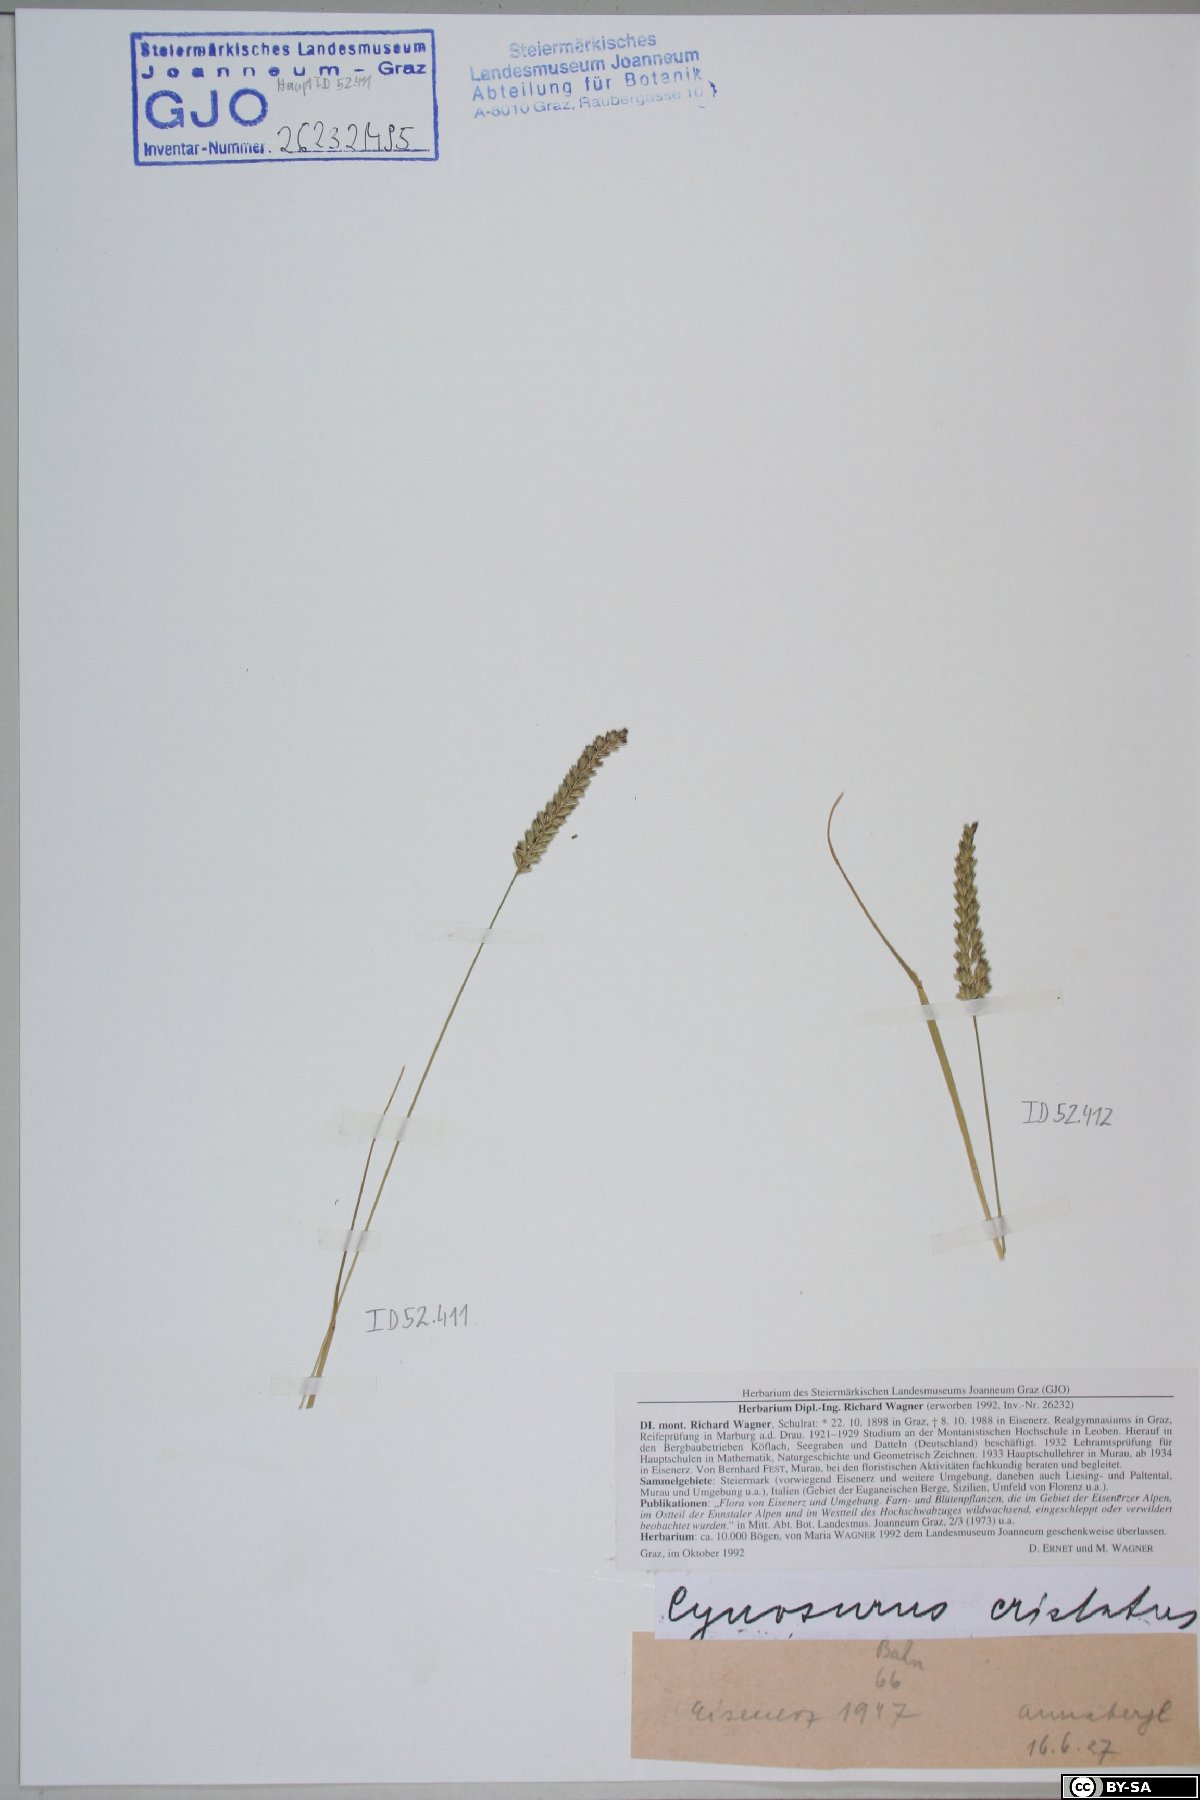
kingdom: Plantae
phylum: Tracheophyta
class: Liliopsida
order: Poales
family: Poaceae
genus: Cynosurus
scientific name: Cynosurus cristatus
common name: Crested dog's-tail
